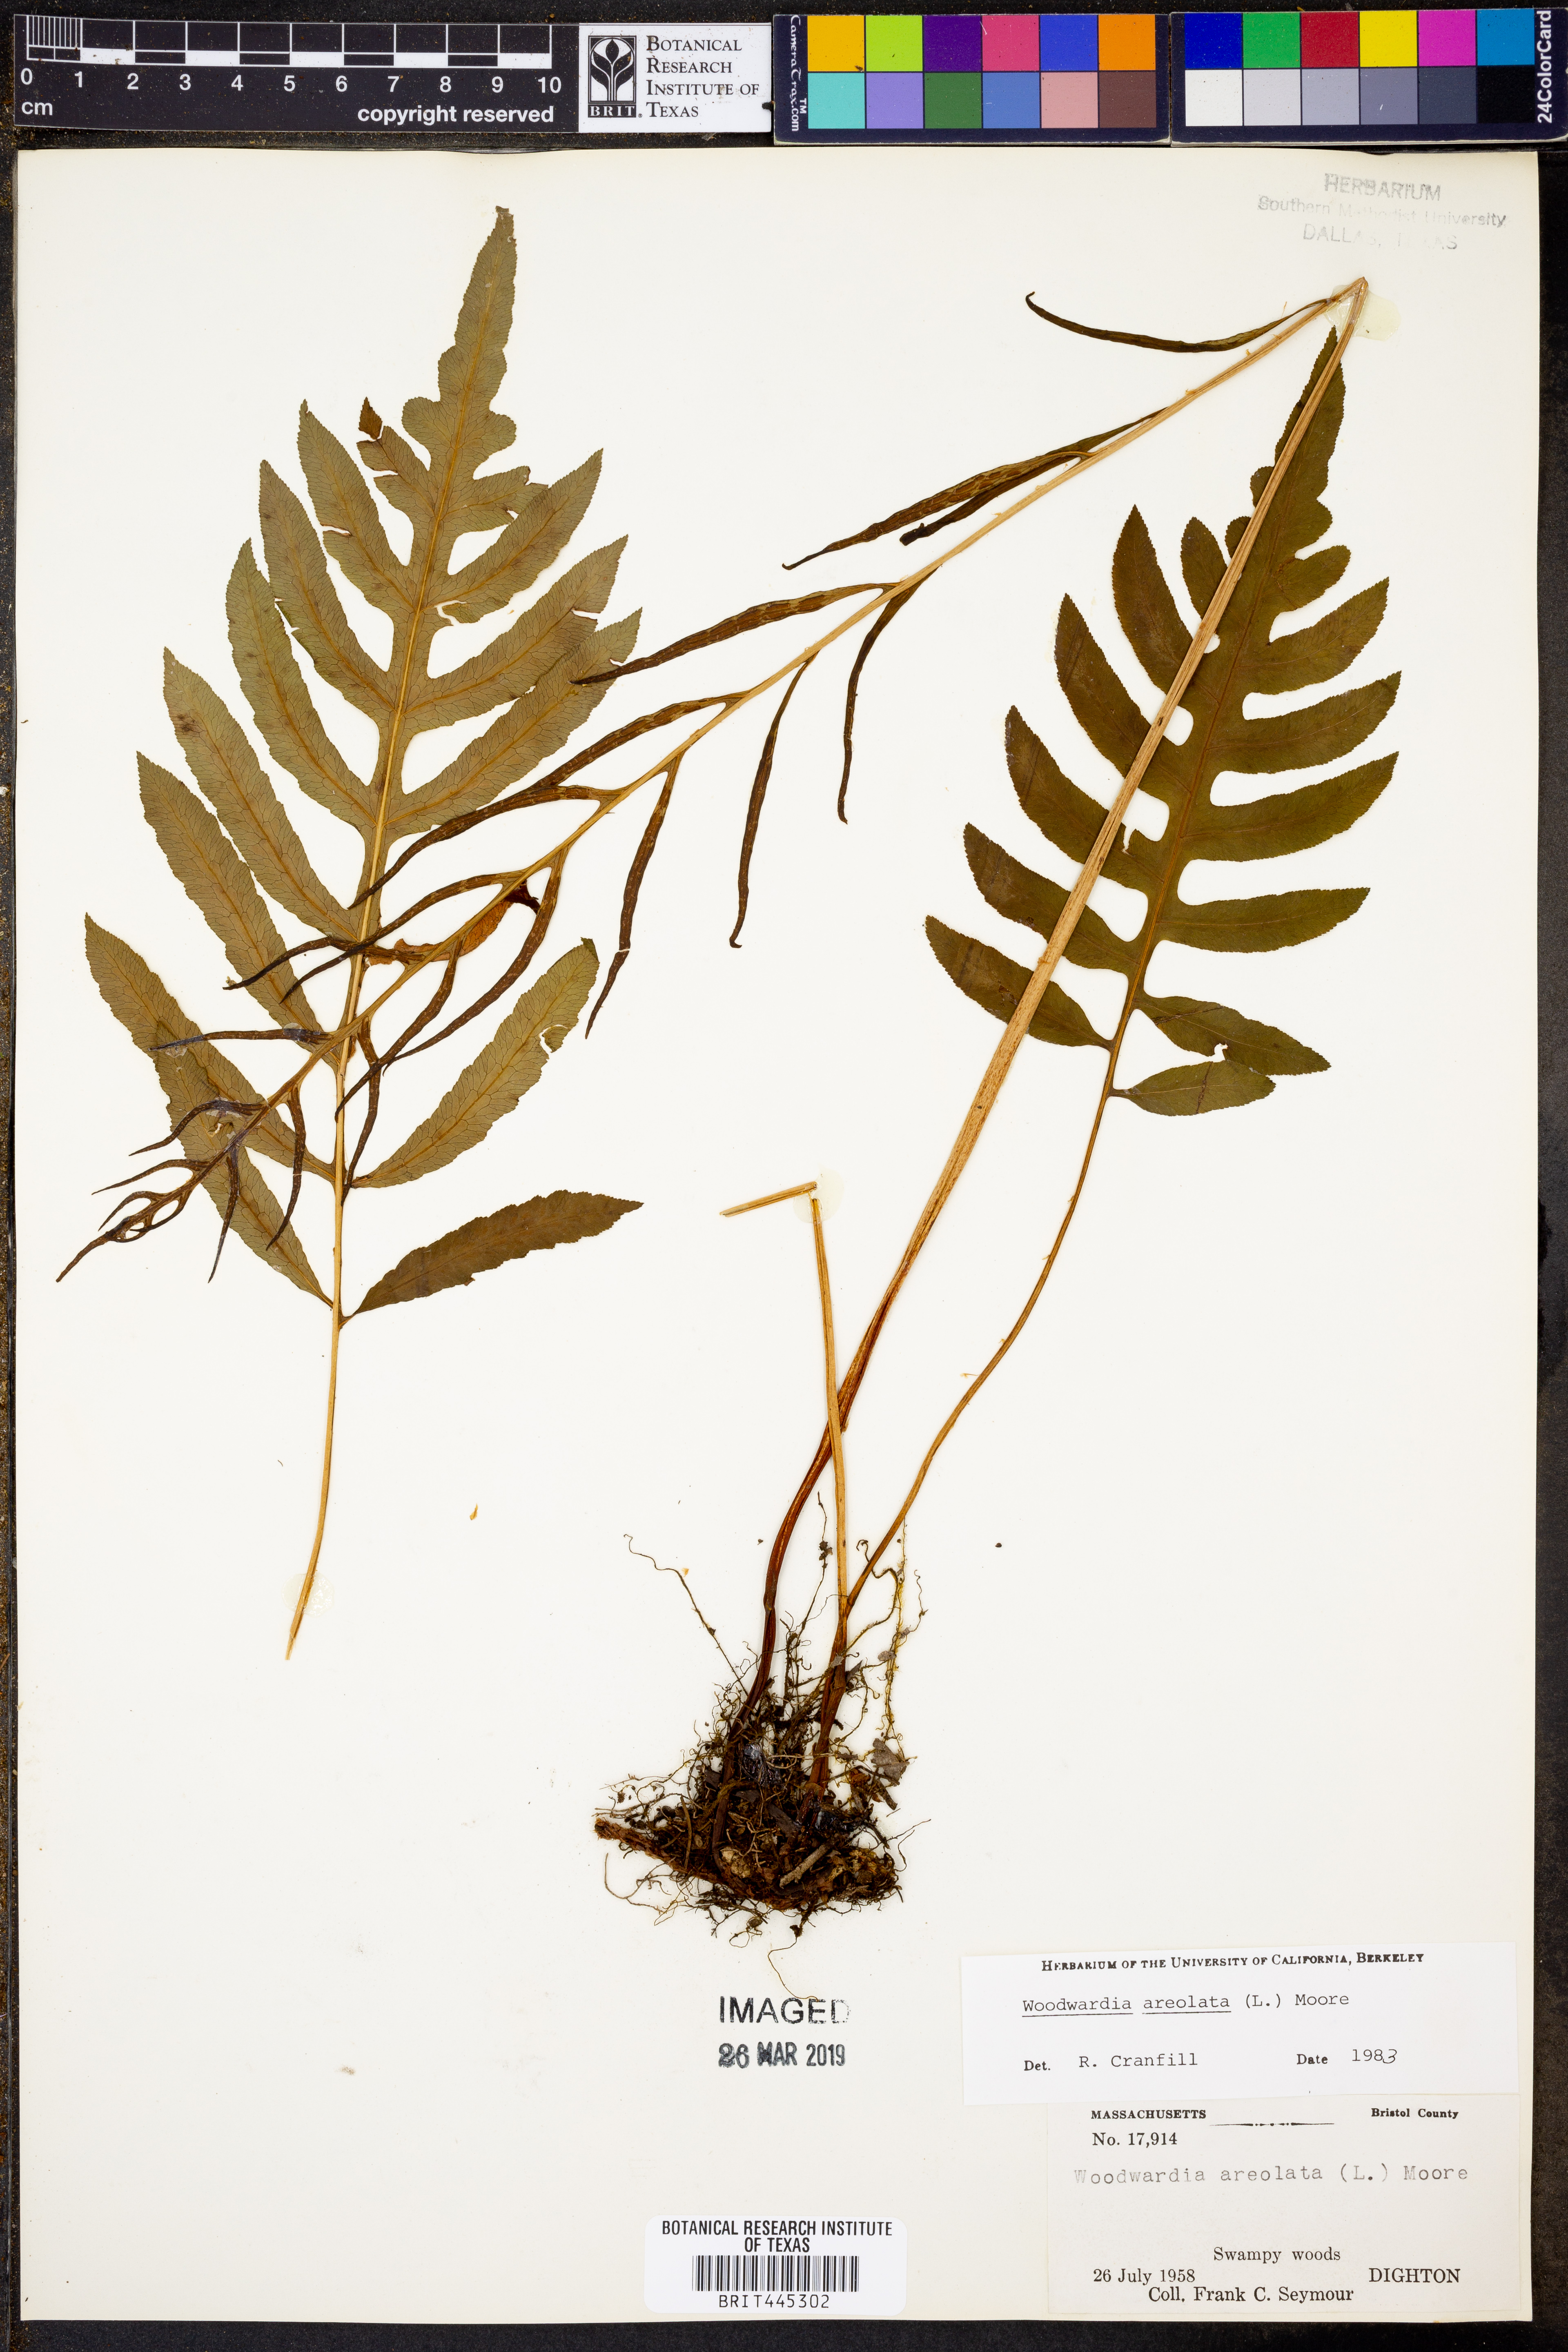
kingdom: Plantae
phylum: Tracheophyta
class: Polypodiopsida
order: Polypodiales
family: Blechnaceae
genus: Lorinseria
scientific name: Lorinseria areolata
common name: Dwarf chain fern
